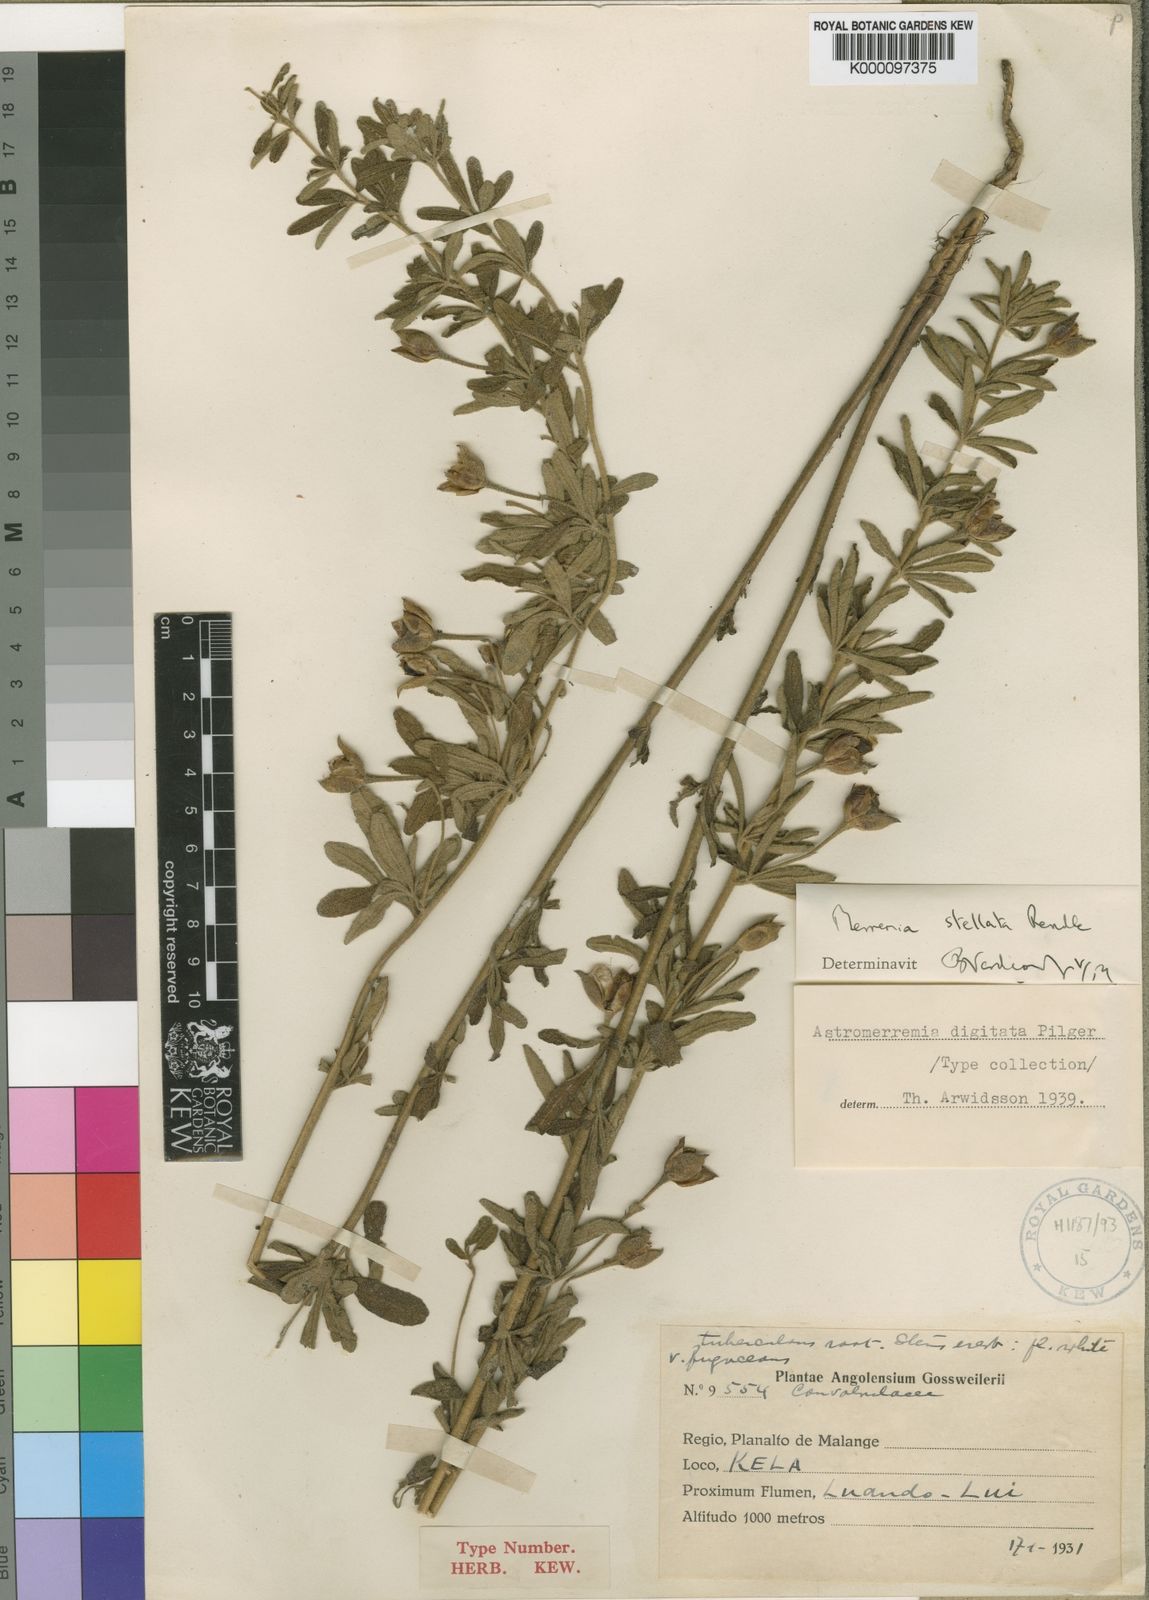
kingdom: Plantae
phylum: Tracheophyta
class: Magnoliopsida
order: Solanales
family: Convolvulaceae
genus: Distimake
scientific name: Distimake
